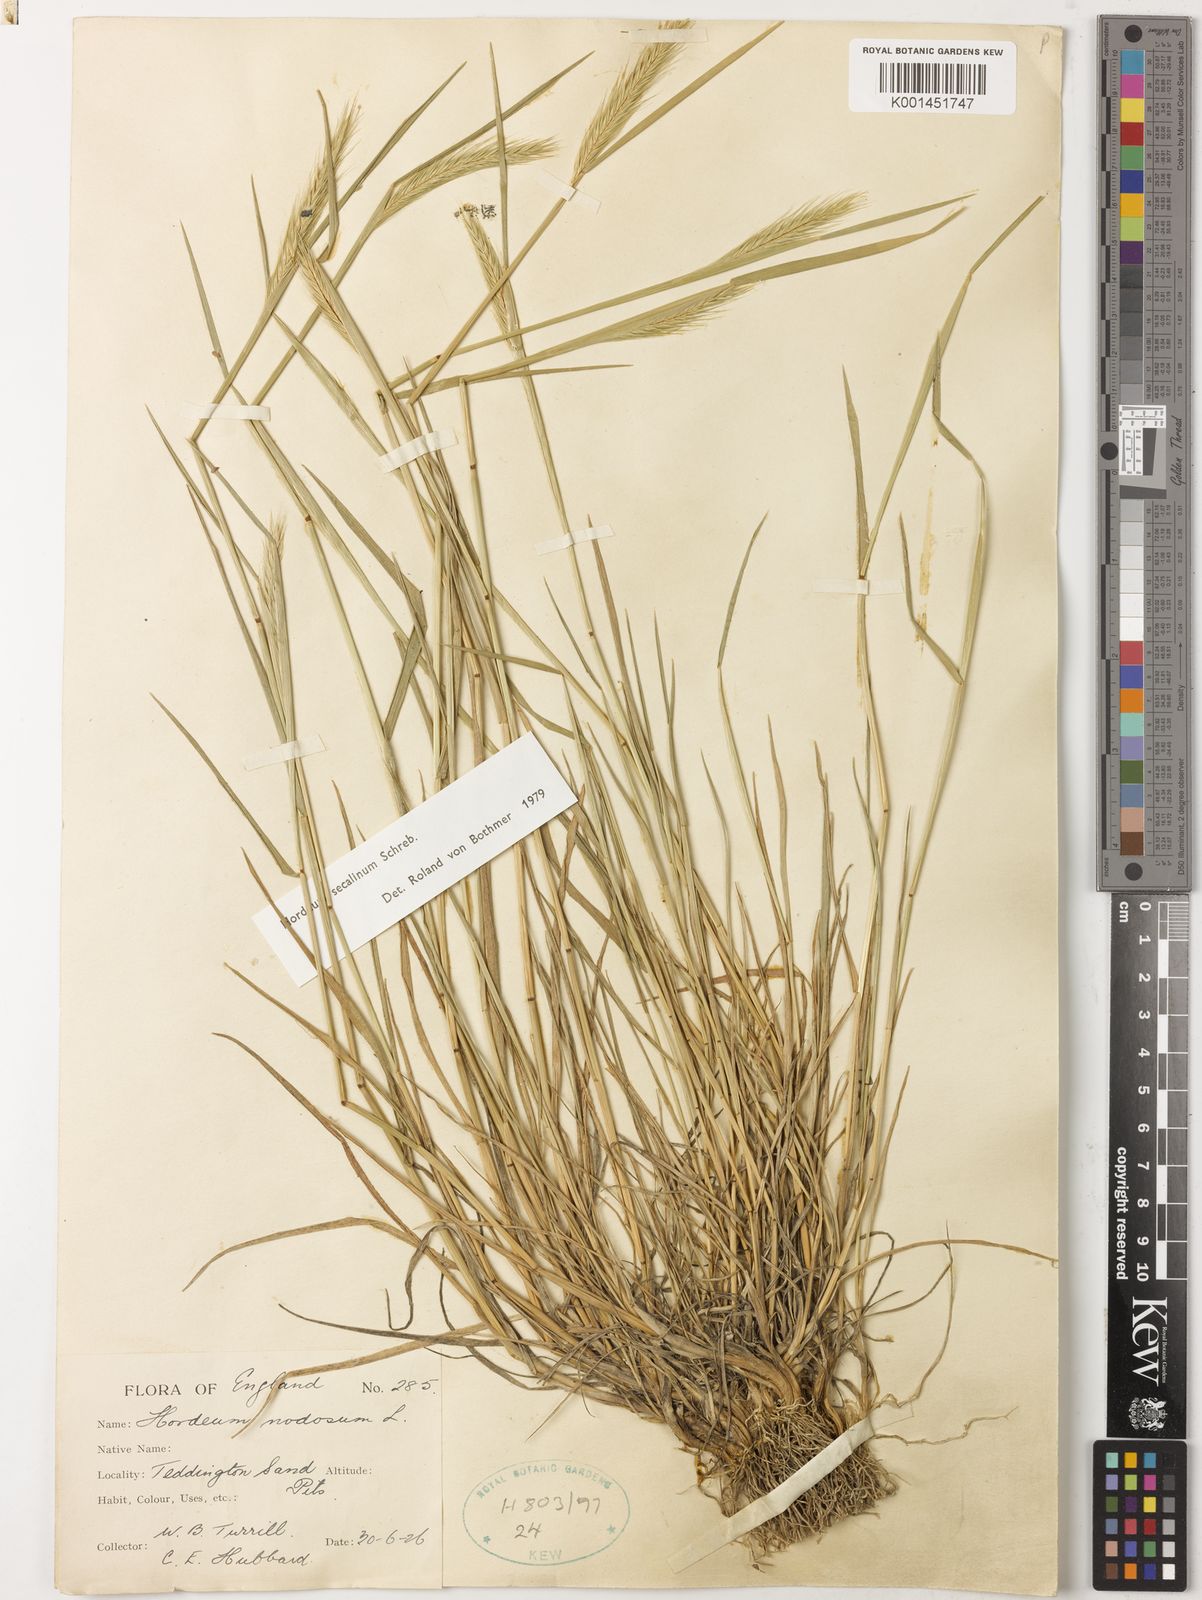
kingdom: Plantae
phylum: Tracheophyta
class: Liliopsida
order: Poales
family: Poaceae
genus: Hordeum
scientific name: Hordeum secalinum
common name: Meadow barley
